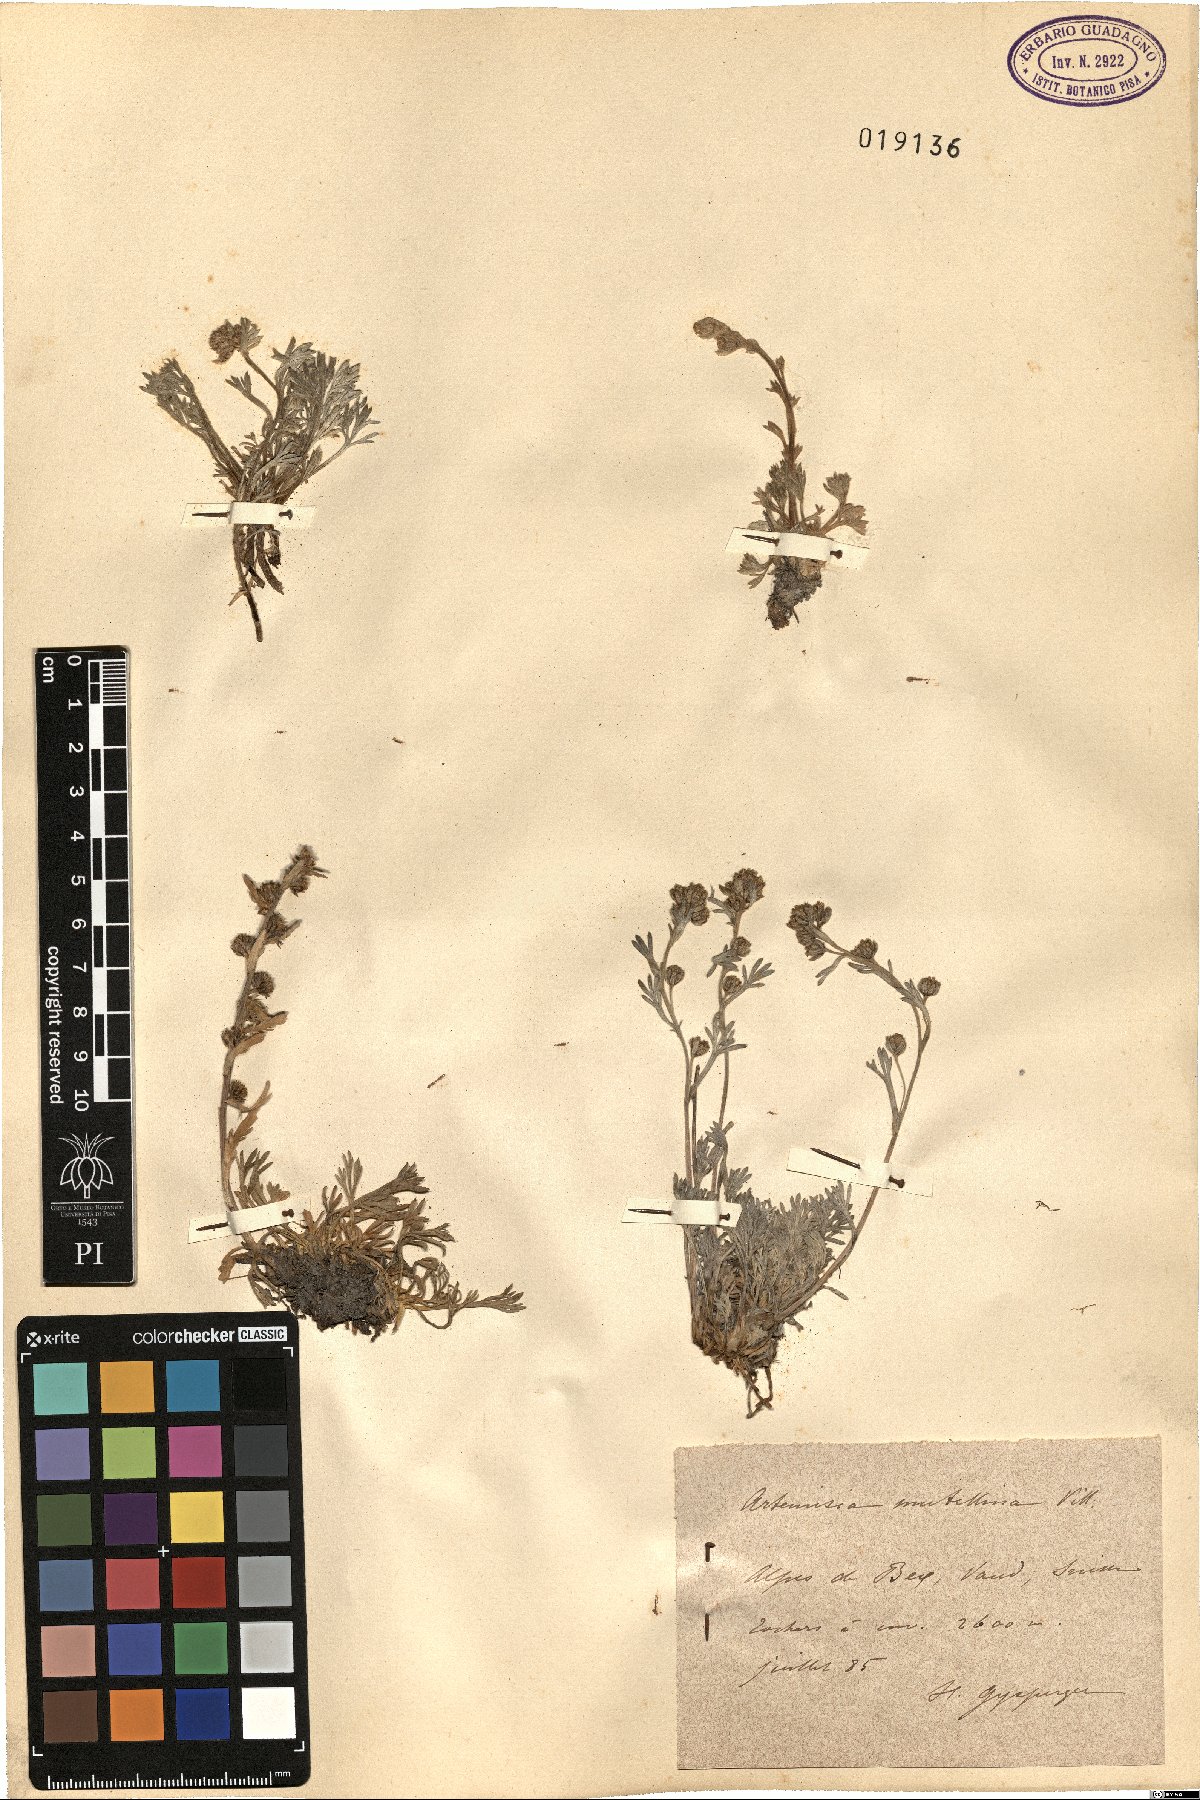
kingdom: Plantae
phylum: Tracheophyta
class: Magnoliopsida
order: Asterales
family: Asteraceae
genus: Artemisia
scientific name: Artemisia mutellina
